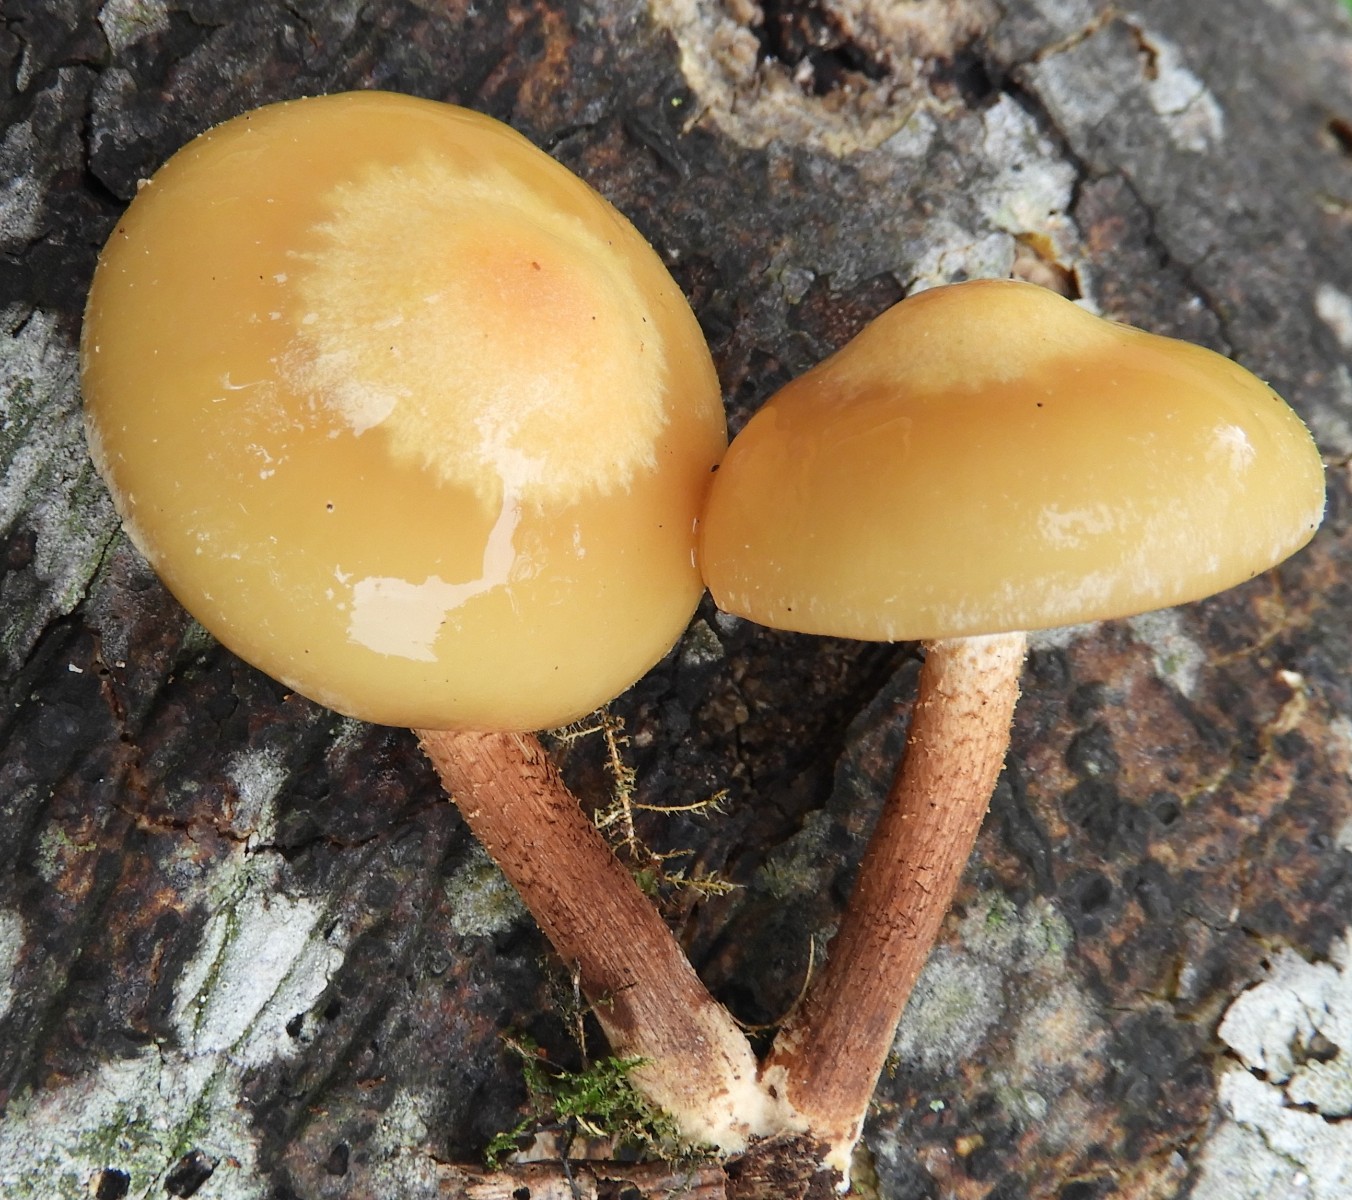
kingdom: Fungi
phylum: Basidiomycota
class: Agaricomycetes
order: Agaricales
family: Strophariaceae
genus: Kuehneromyces
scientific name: Kuehneromyces mutabilis
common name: foranderlig skælhat
